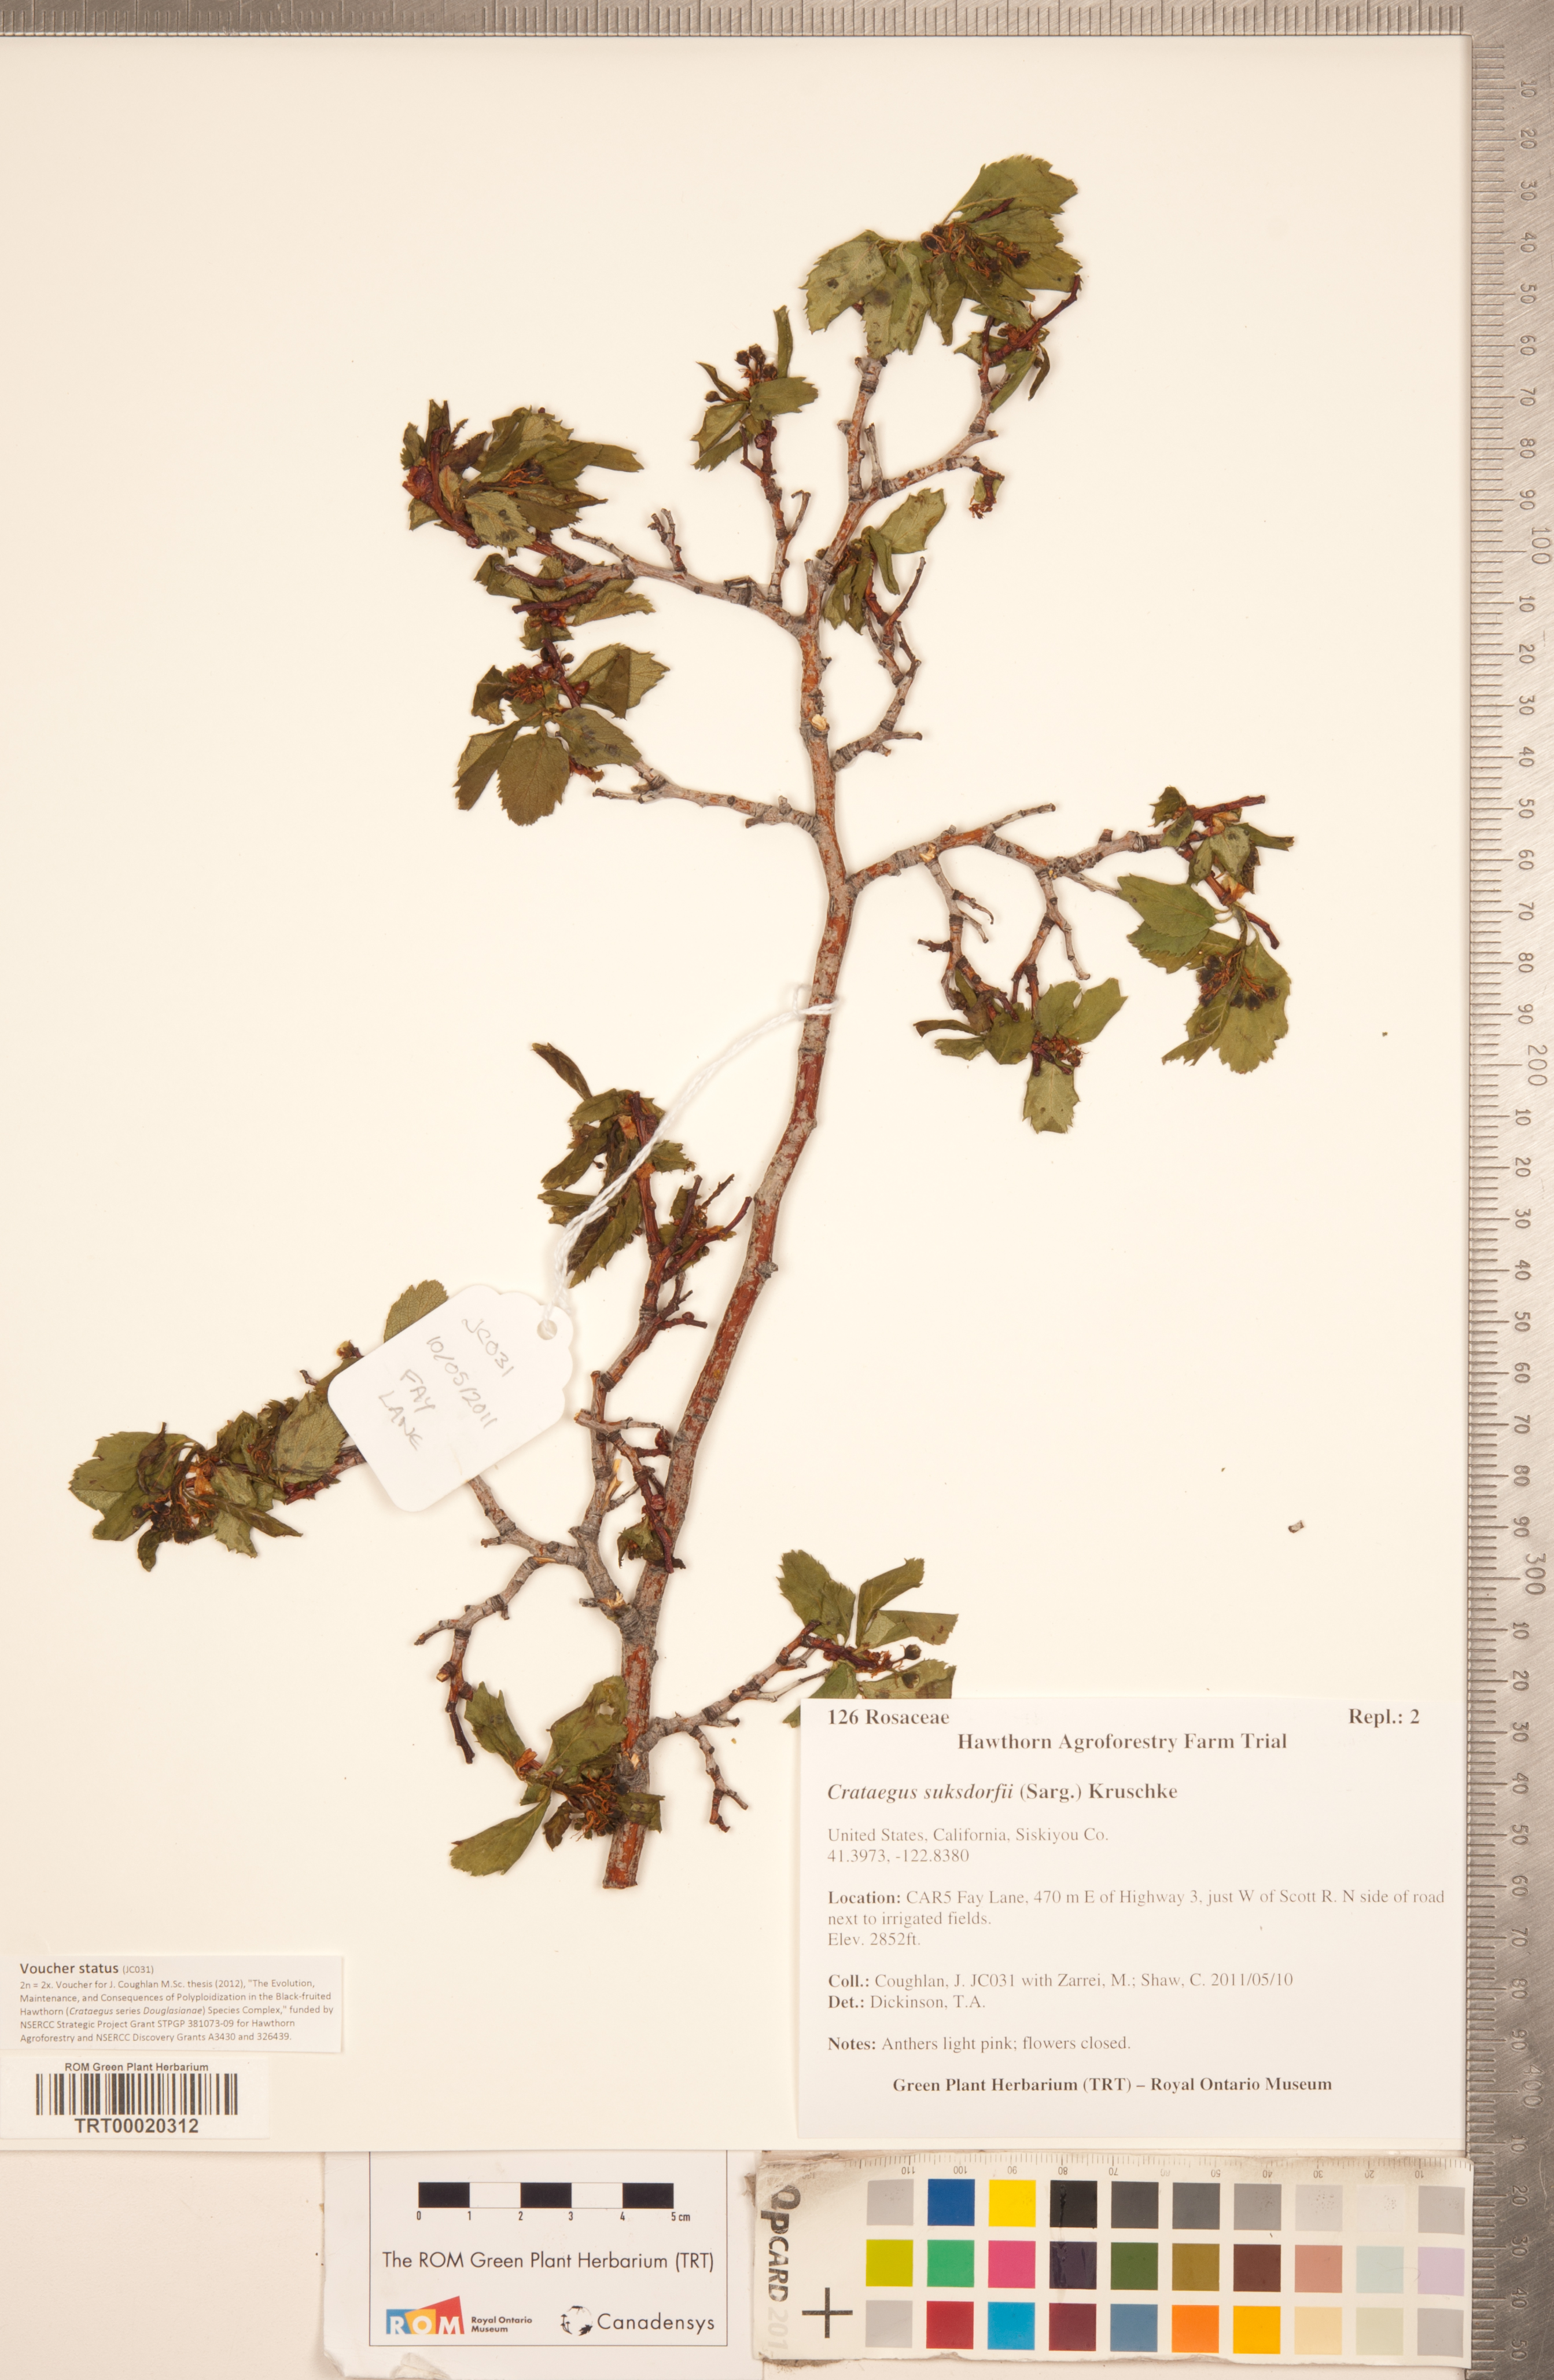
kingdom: Plantae
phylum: Tracheophyta
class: Magnoliopsida
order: Rosales
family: Rosaceae
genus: Crataegus
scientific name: Crataegus gaylussacia
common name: Huckleberry hawthorn
